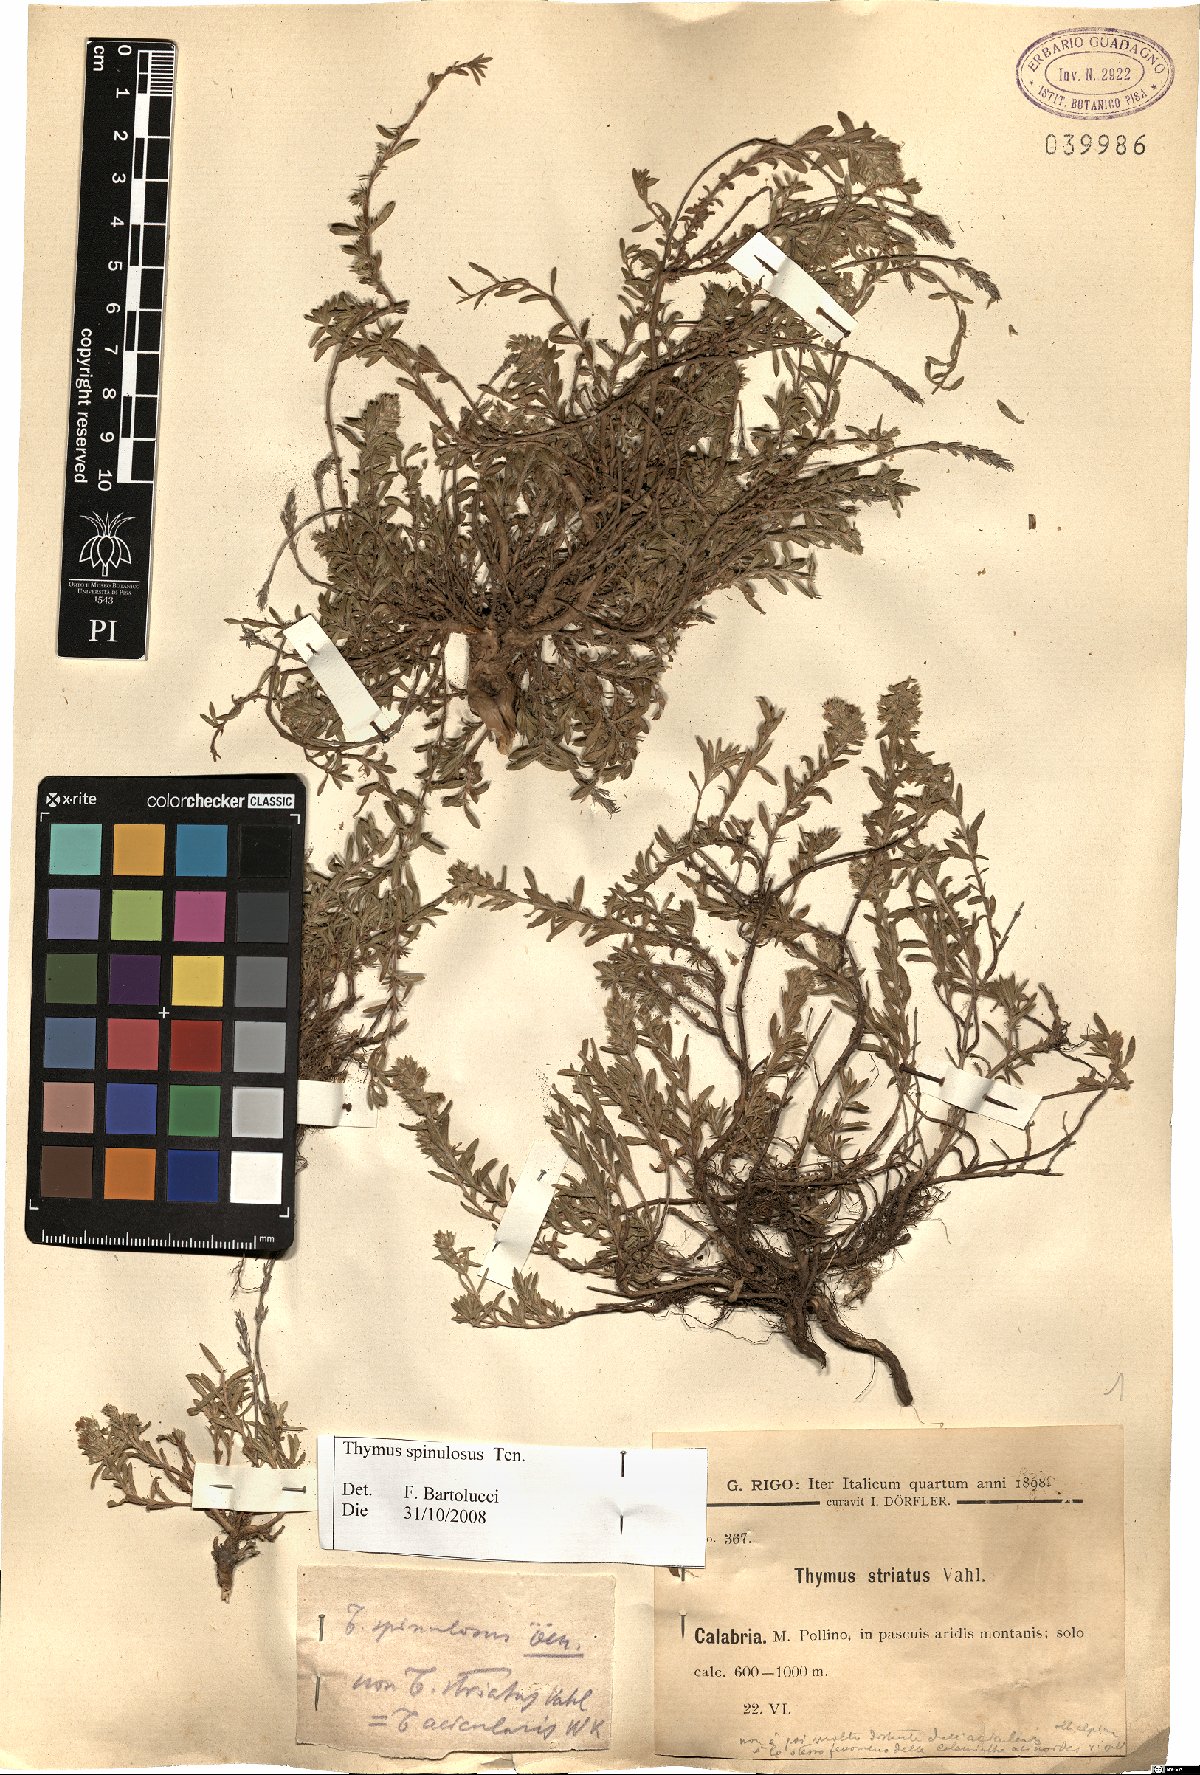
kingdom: Plantae
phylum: Tracheophyta
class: Magnoliopsida
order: Lamiales
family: Lamiaceae
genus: Thymus
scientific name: Thymus spinulosus
